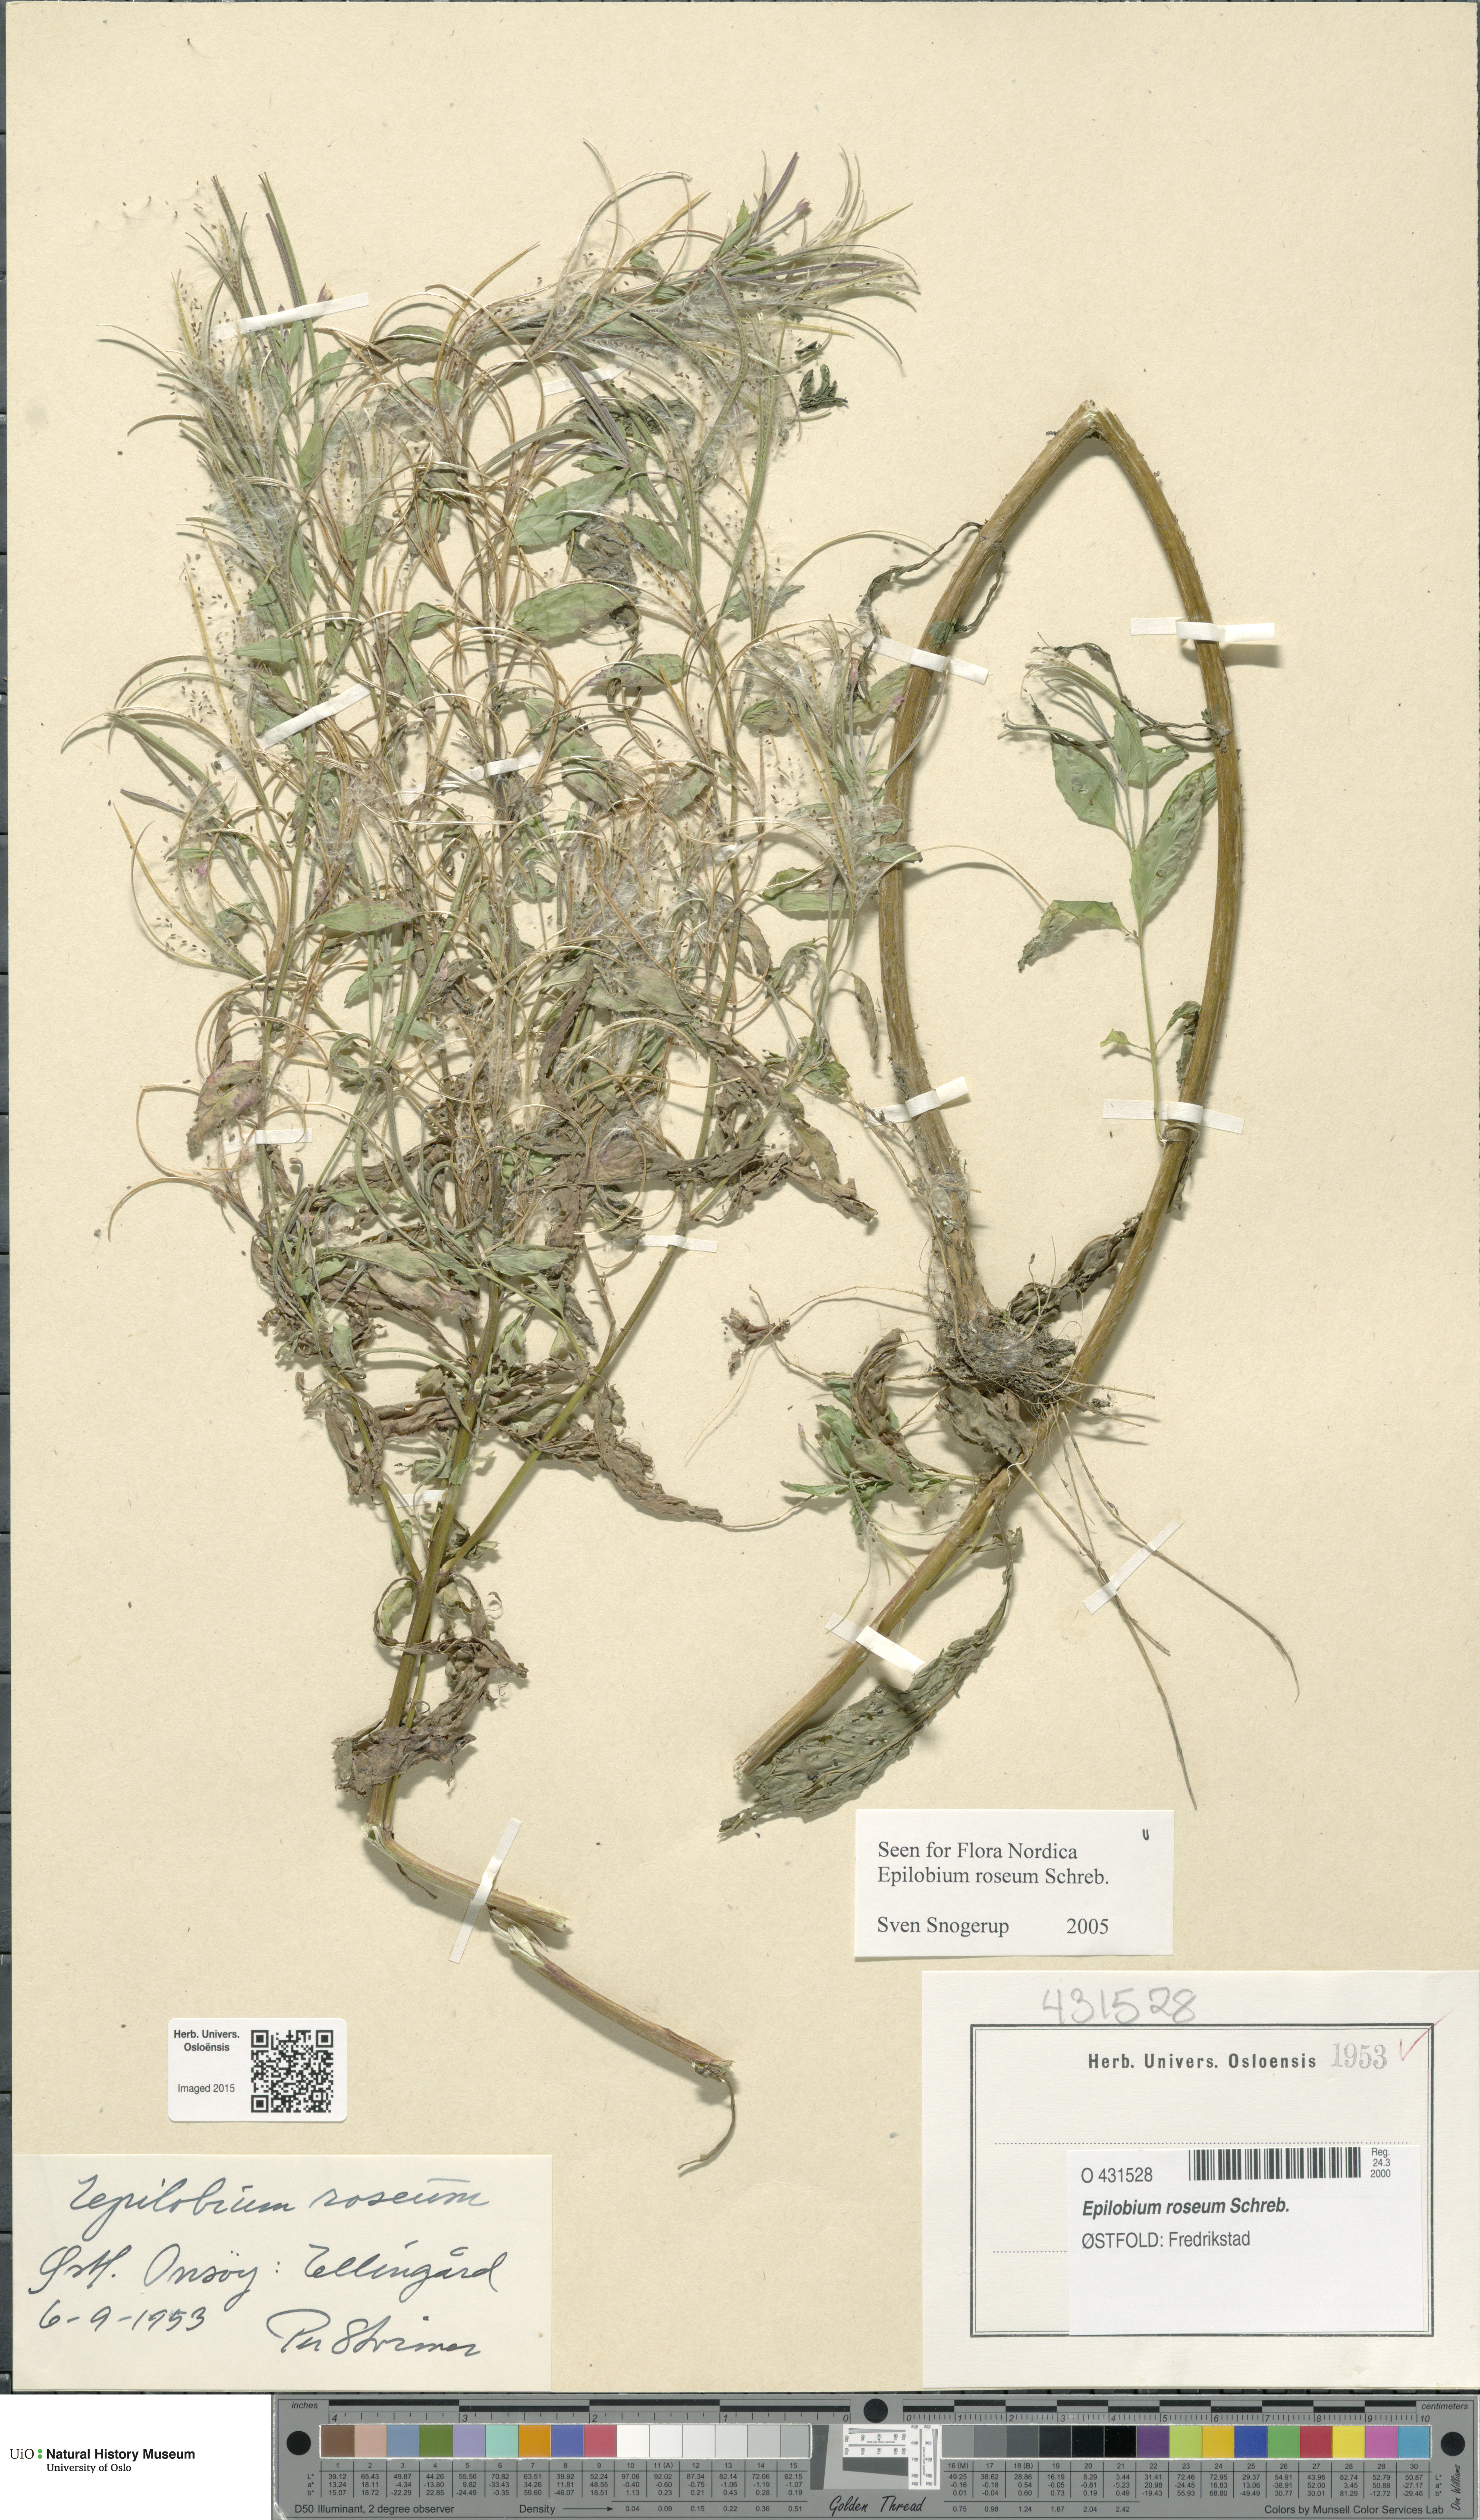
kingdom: Plantae
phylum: Tracheophyta
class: Magnoliopsida
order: Myrtales
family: Onagraceae
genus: Epilobium
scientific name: Epilobium roseum
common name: Pale willowherb
